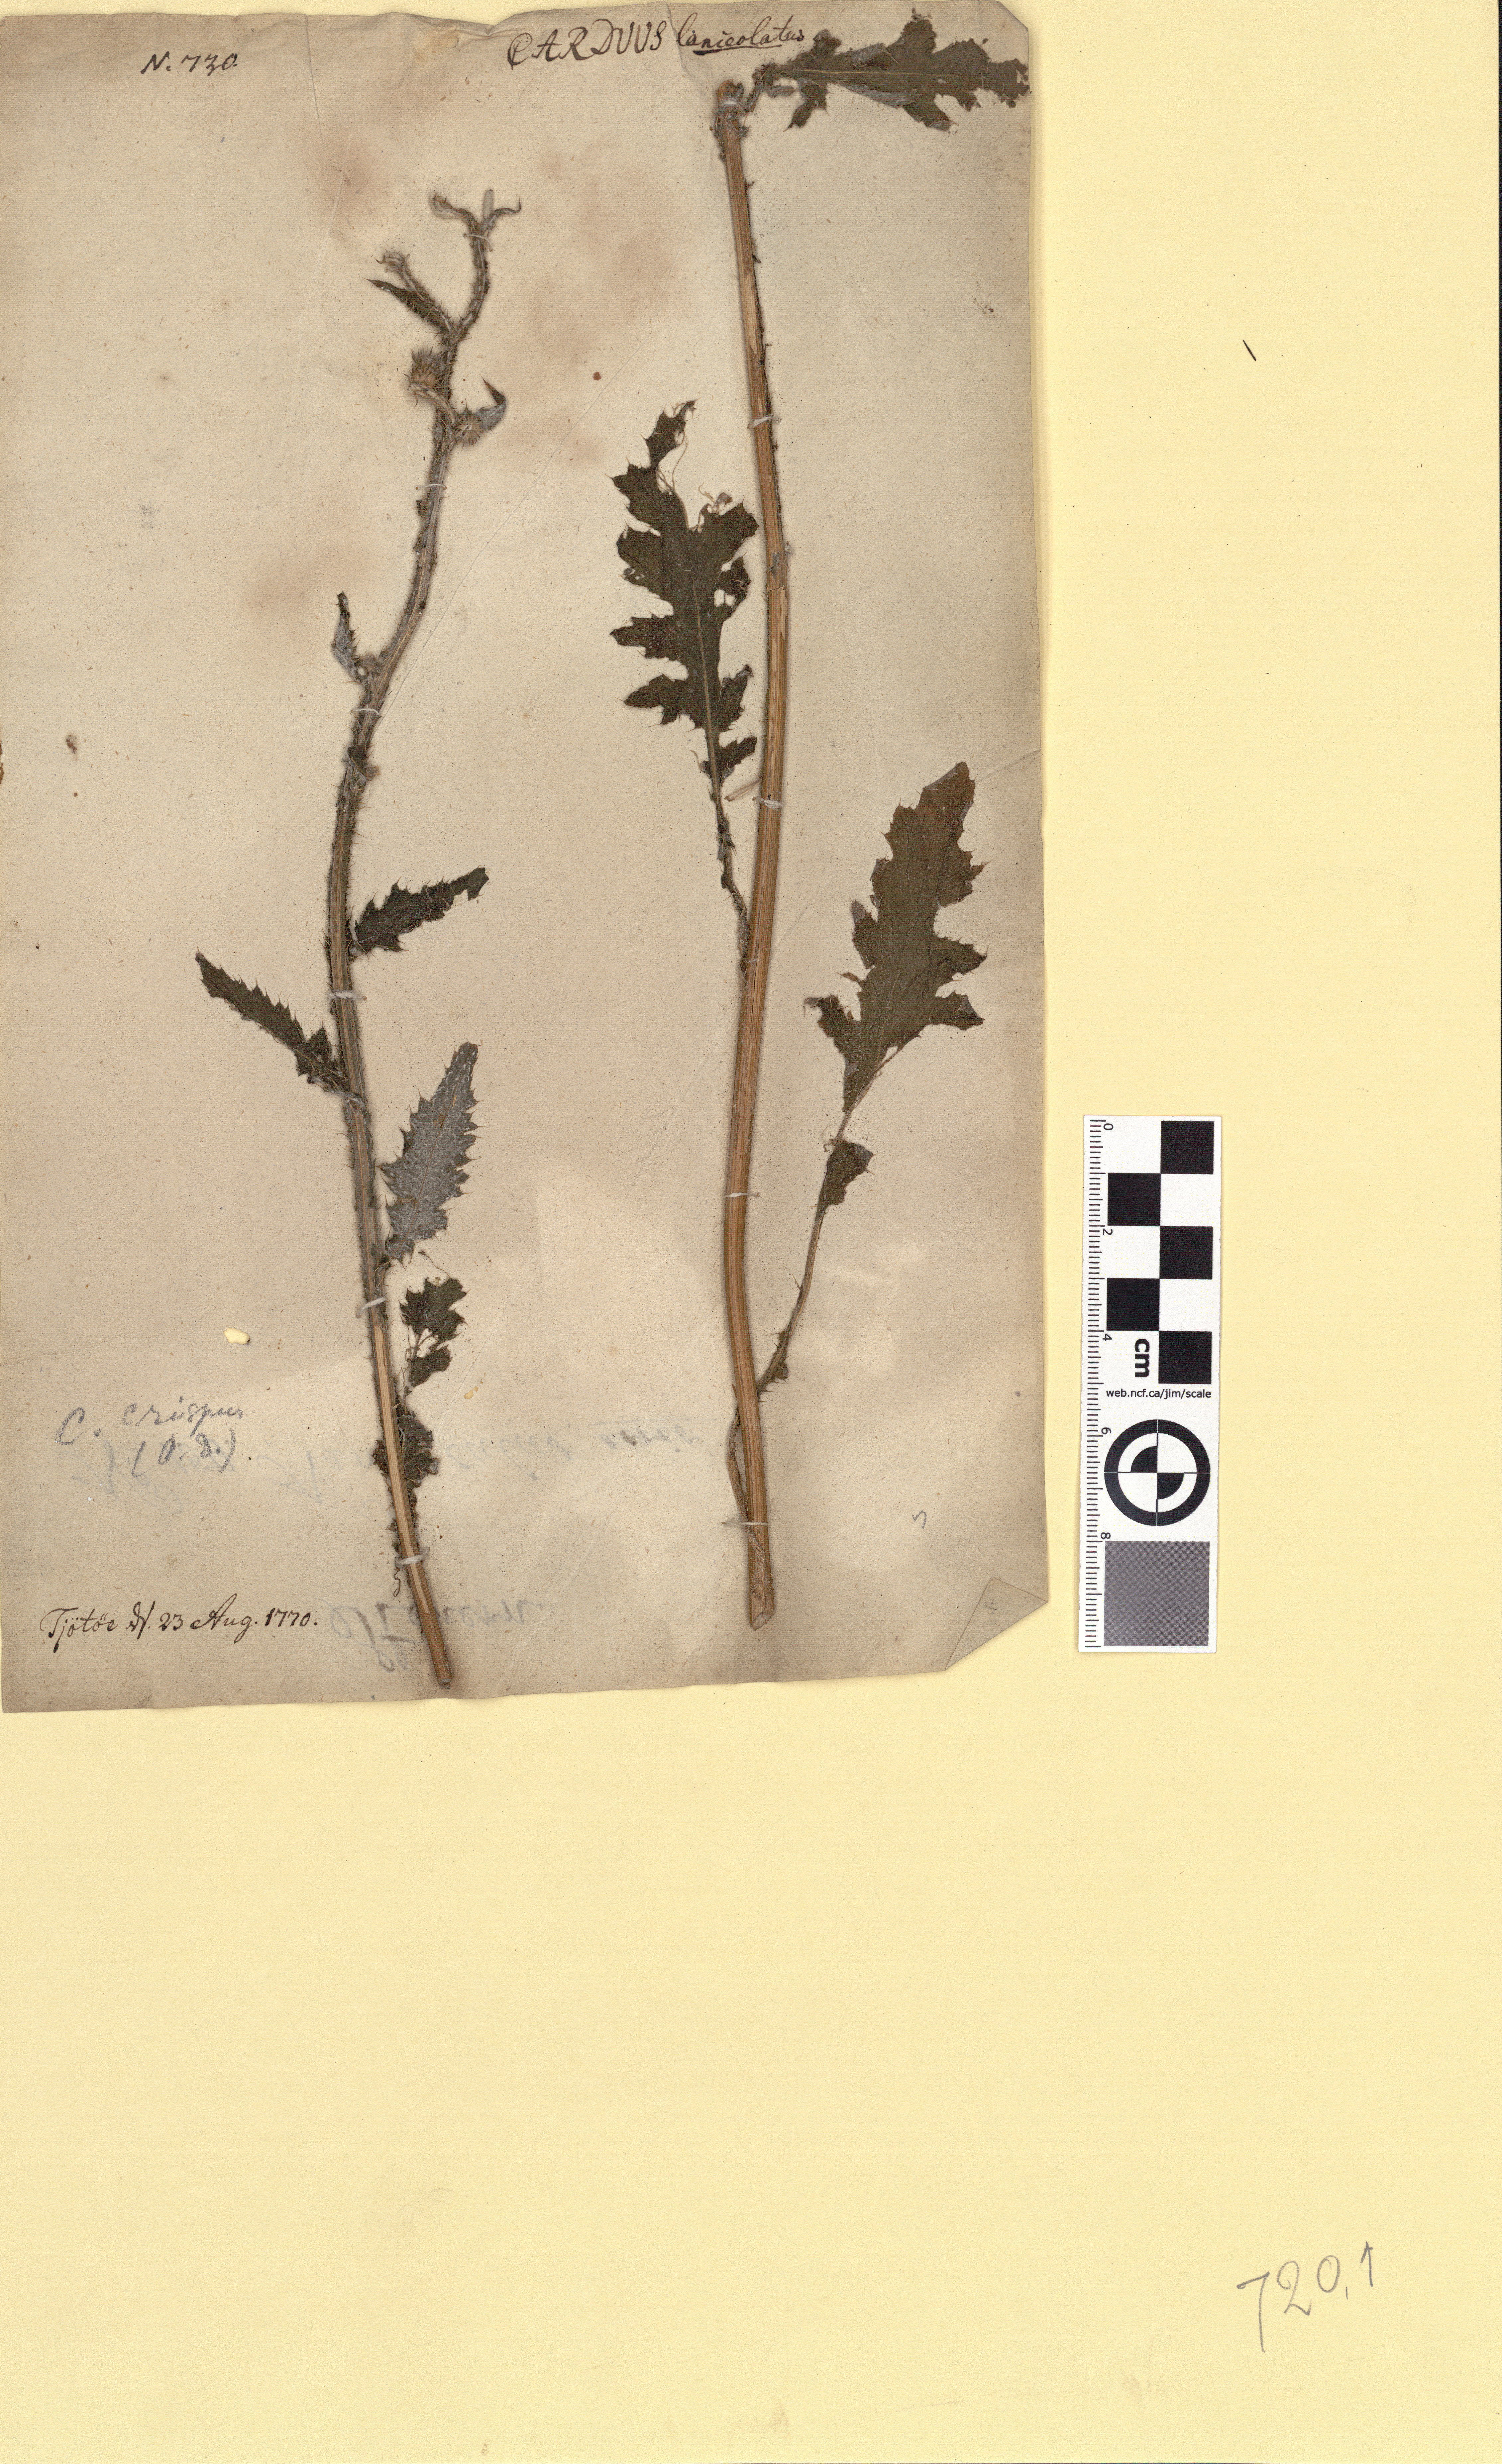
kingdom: Plantae
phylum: Tracheophyta
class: Magnoliopsida
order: Asterales
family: Asteraceae
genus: Carduus
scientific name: Carduus crispus
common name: Welted thistle
